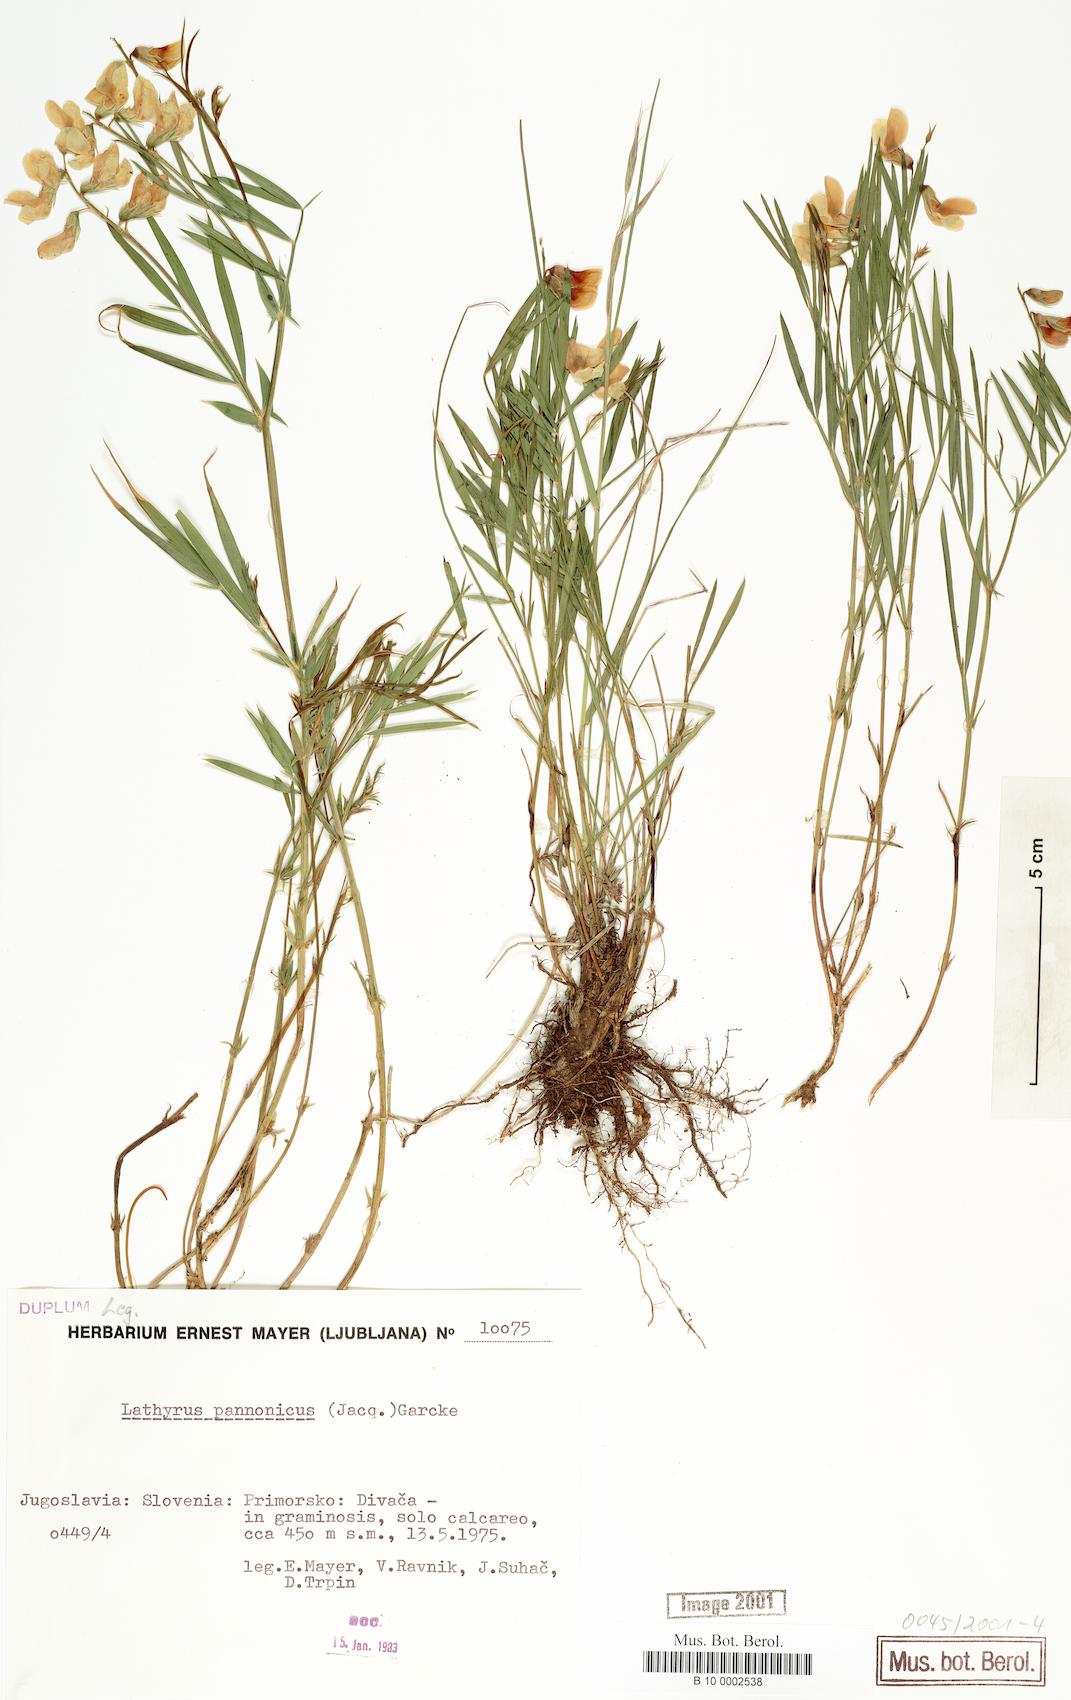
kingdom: Plantae
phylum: Tracheophyta
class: Magnoliopsida
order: Fabales
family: Fabaceae
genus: Lathyrus
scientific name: Lathyrus pannonicus
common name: Pea
